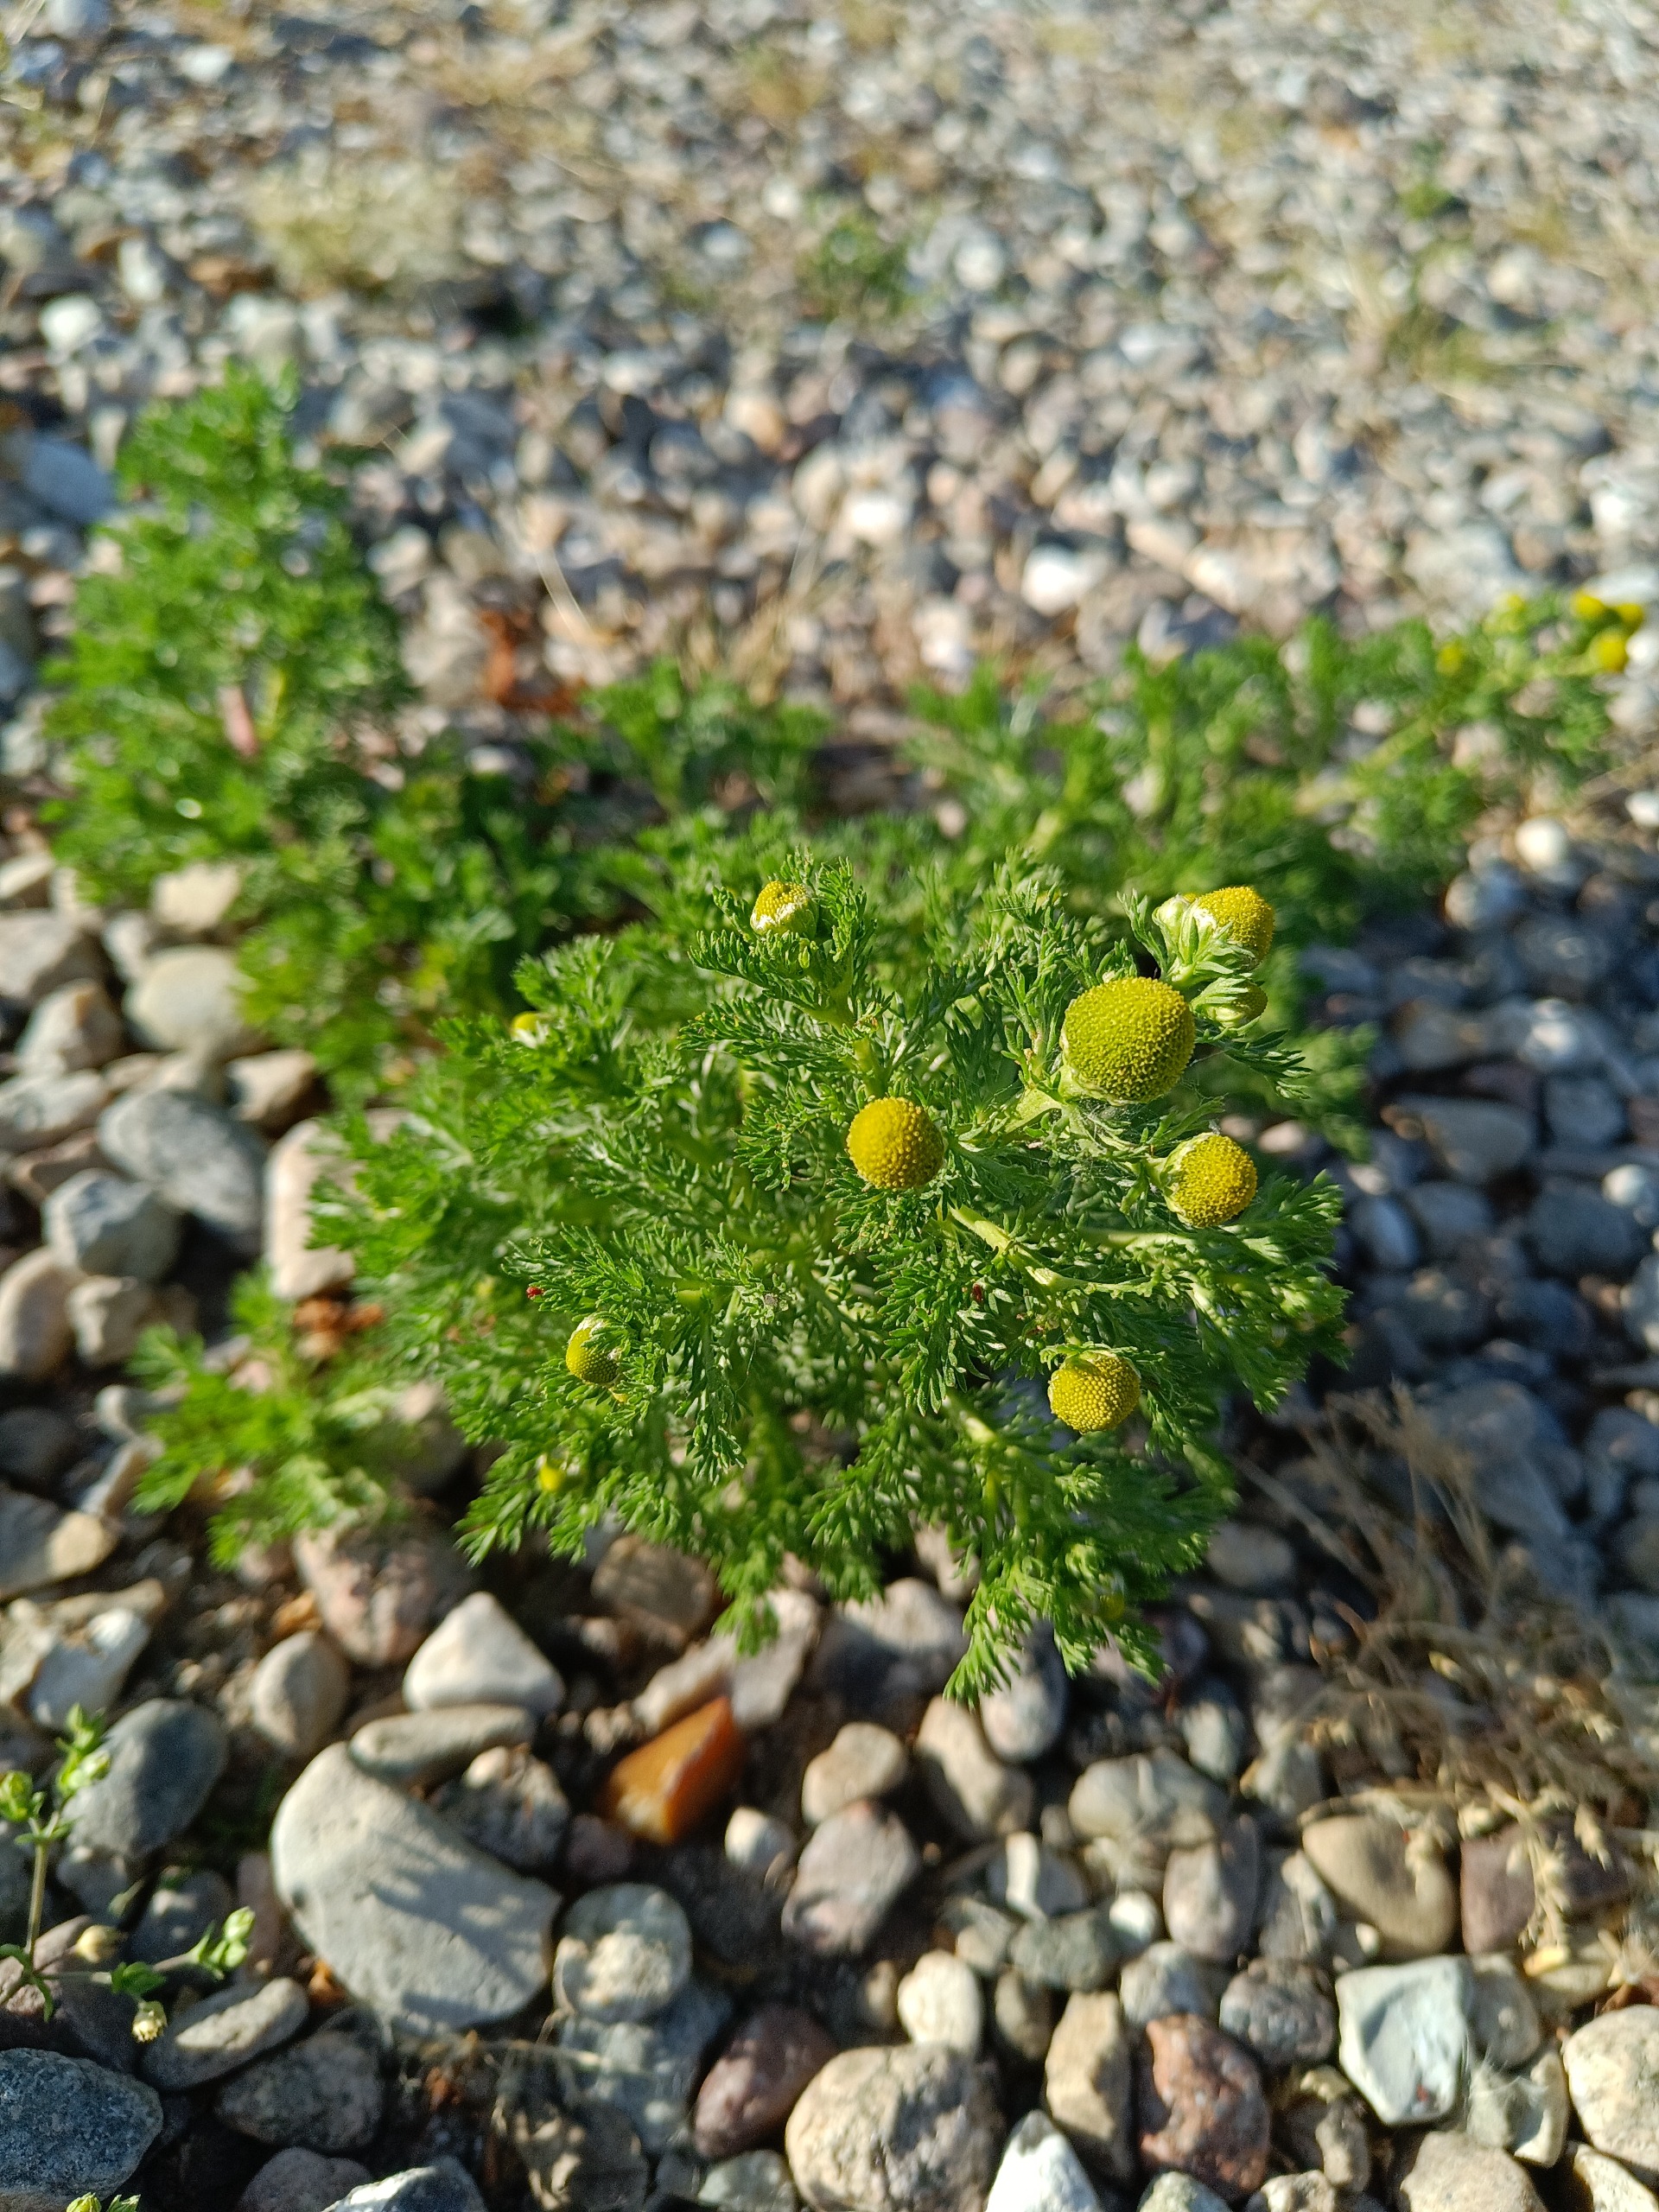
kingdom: Plantae
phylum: Tracheophyta
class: Magnoliopsida
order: Asterales
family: Asteraceae
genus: Matricaria
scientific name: Matricaria discoidea
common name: Skive-kamille
